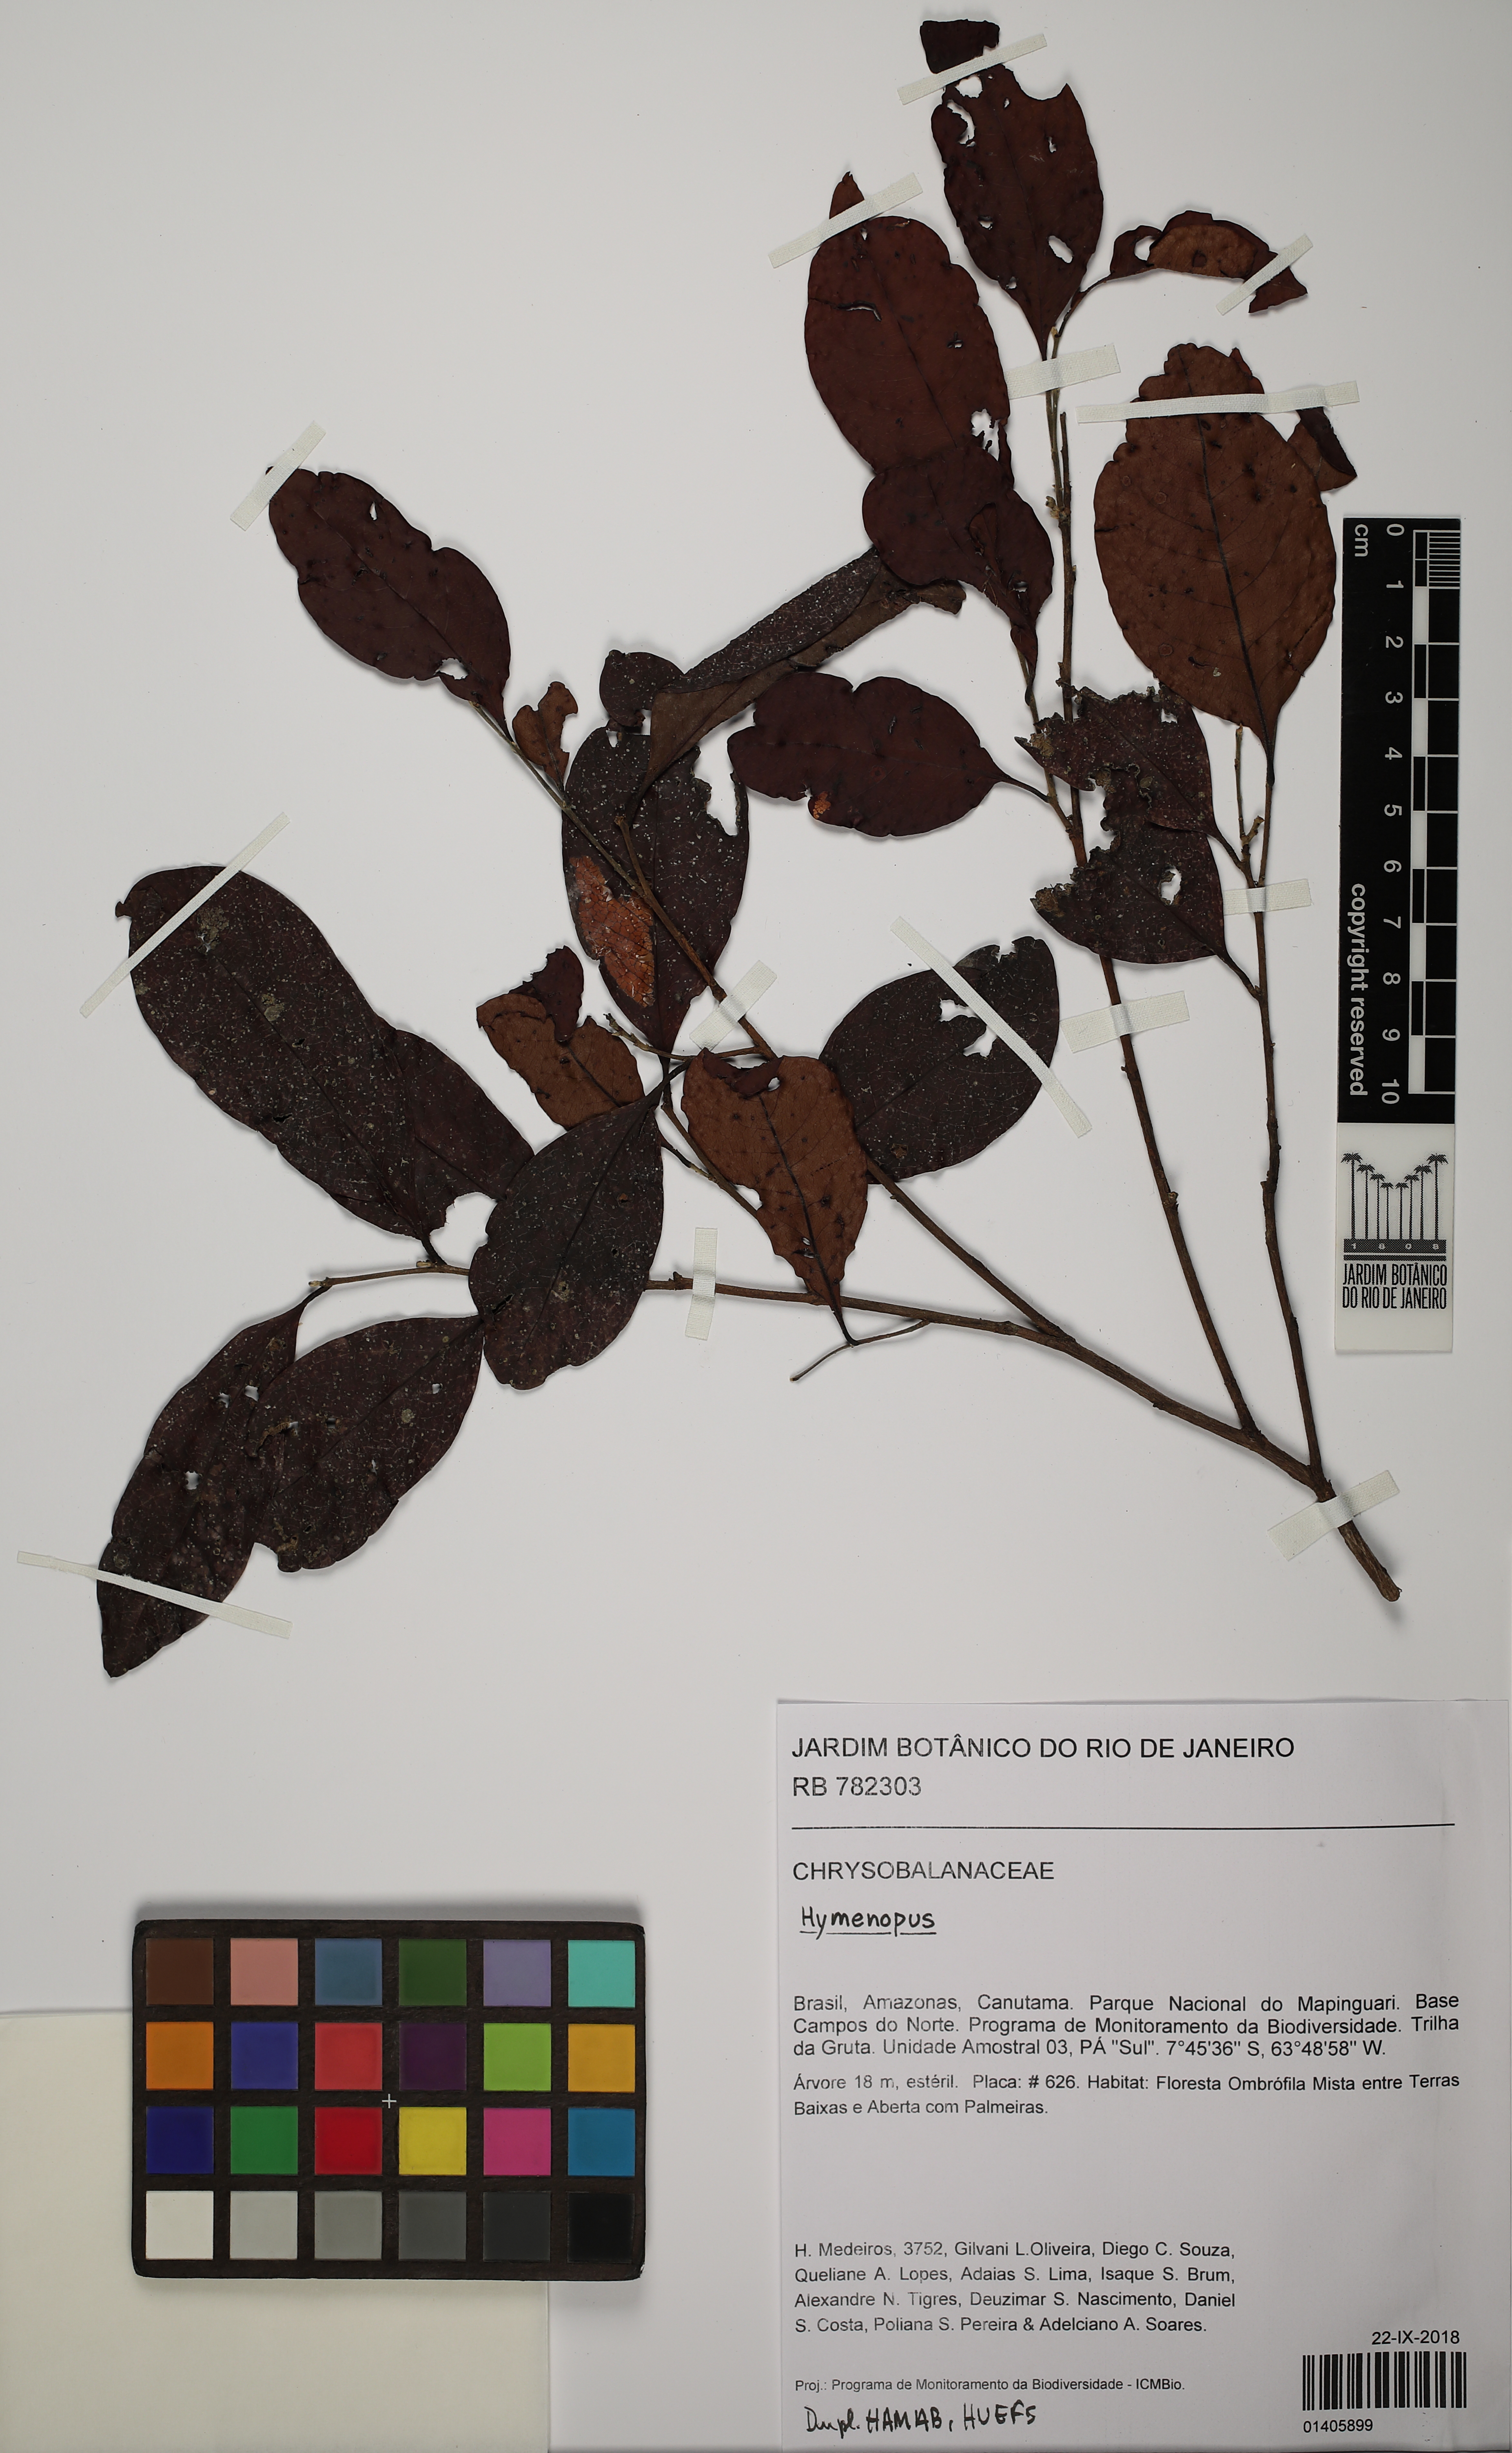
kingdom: Plantae
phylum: Tracheophyta
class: Magnoliopsida
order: Malpighiales
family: Chrysobalanaceae
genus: Hymenopus
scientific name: Hymenopus
